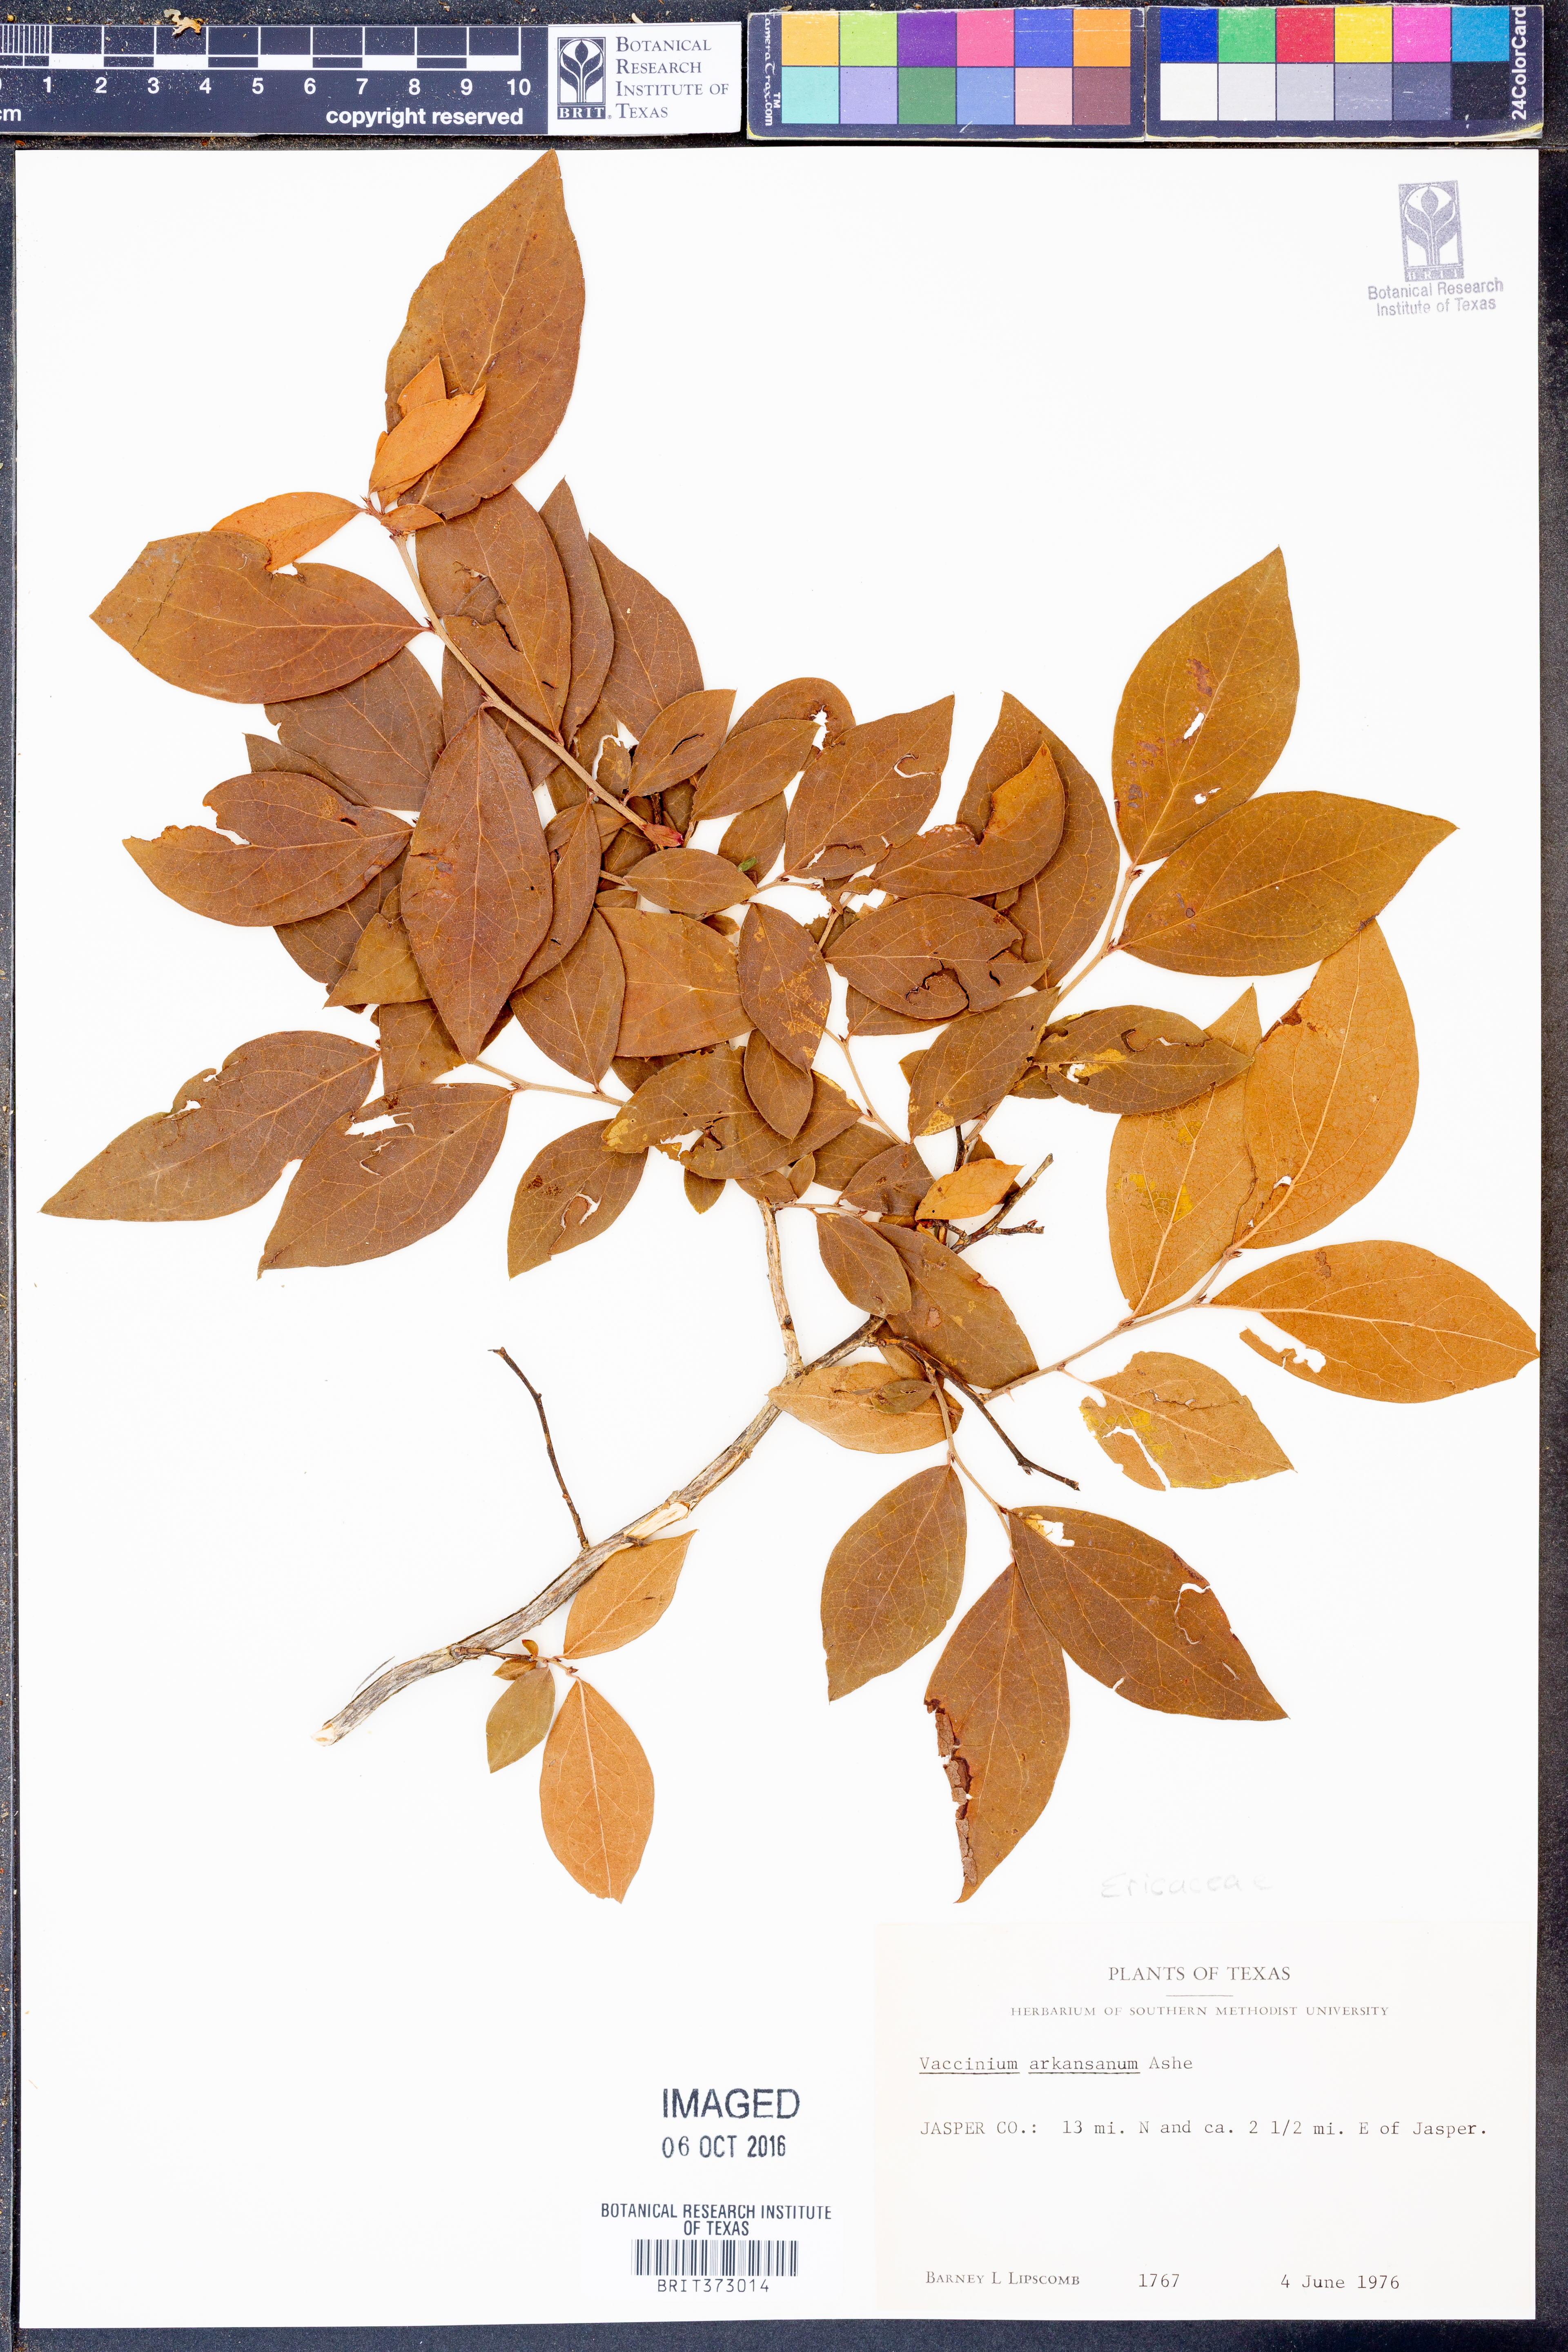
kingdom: Plantae
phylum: Tracheophyta
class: Magnoliopsida
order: Ericales
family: Ericaceae
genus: Vaccinium
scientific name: Vaccinium corymbosum
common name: Blueberry
